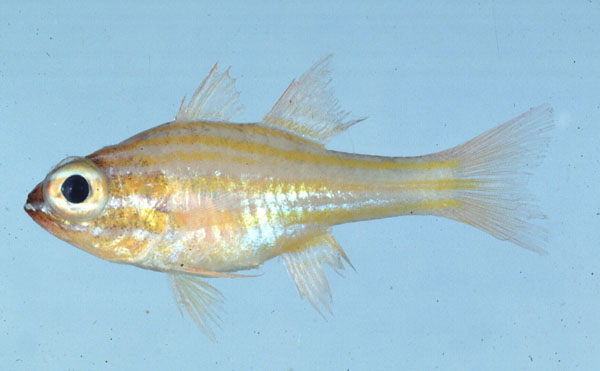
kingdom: Animalia
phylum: Chordata
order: Perciformes
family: Apogonidae
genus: Ostorhinchus
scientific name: Ostorhinchus cyanosoma
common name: Yellow-striped cardinalfish
